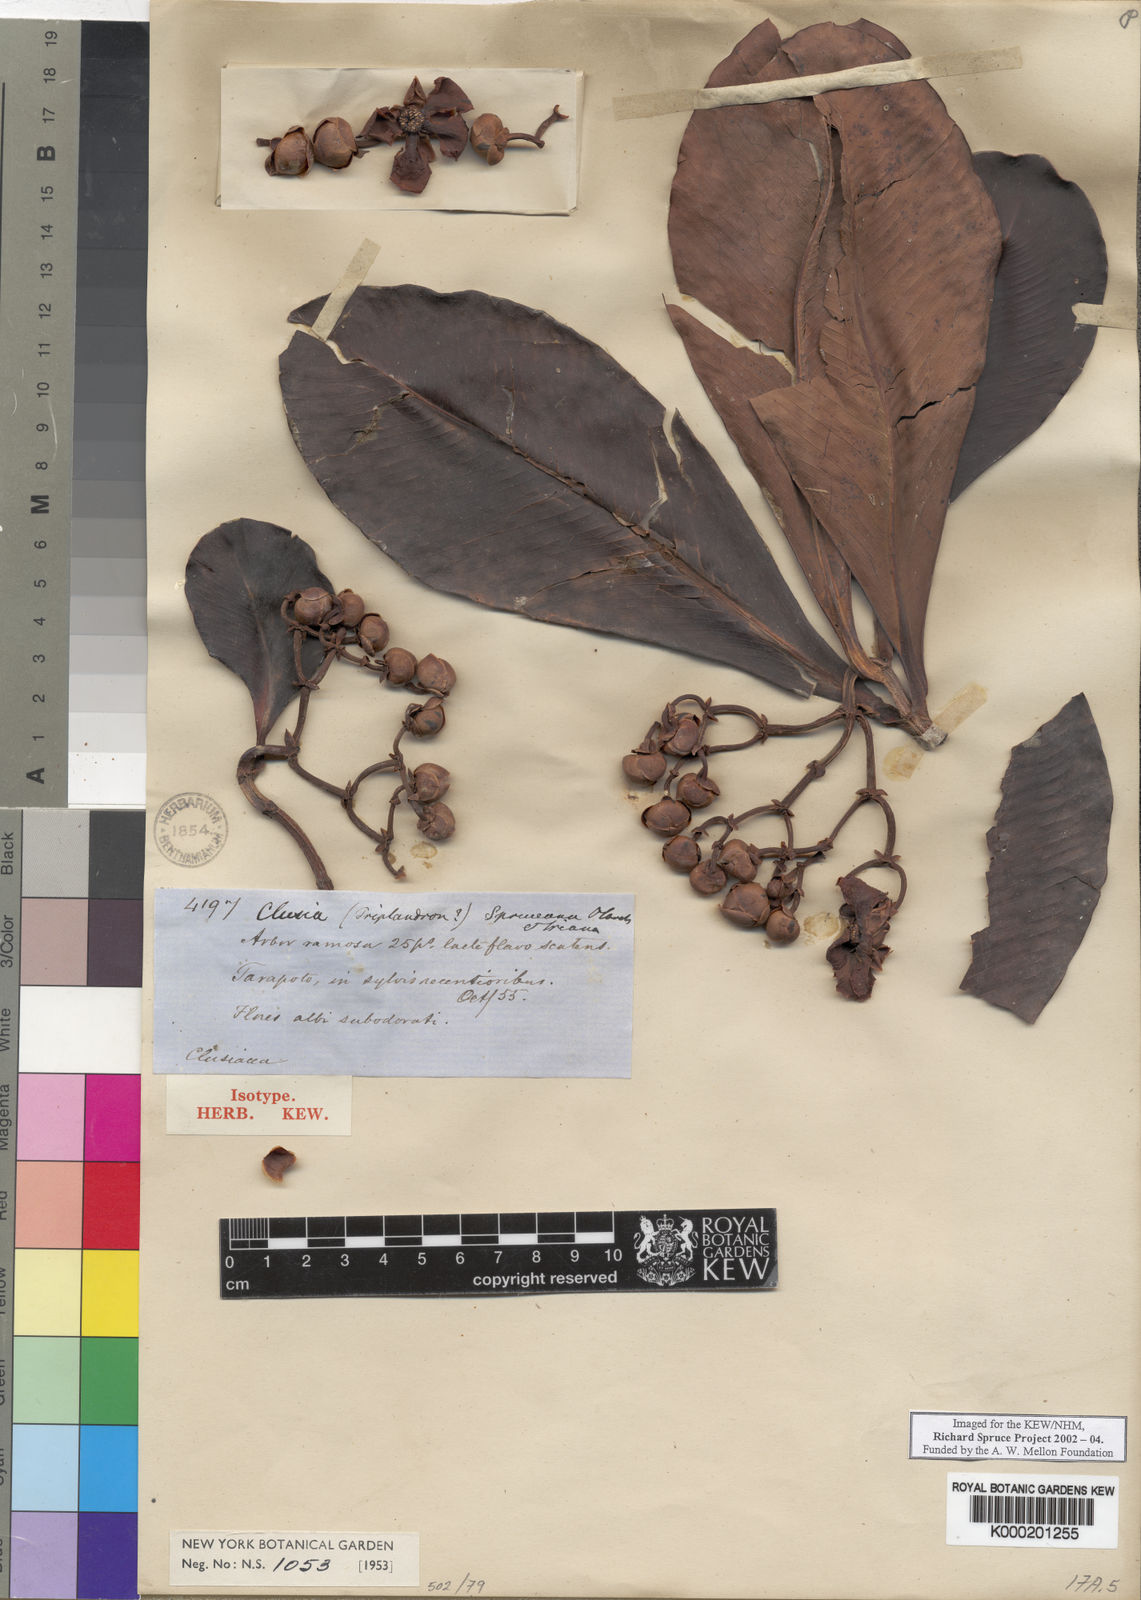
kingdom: Plantae
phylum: Tracheophyta
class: Magnoliopsida
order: Malpighiales
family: Clusiaceae
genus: Clusia
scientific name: Clusia spruceana
